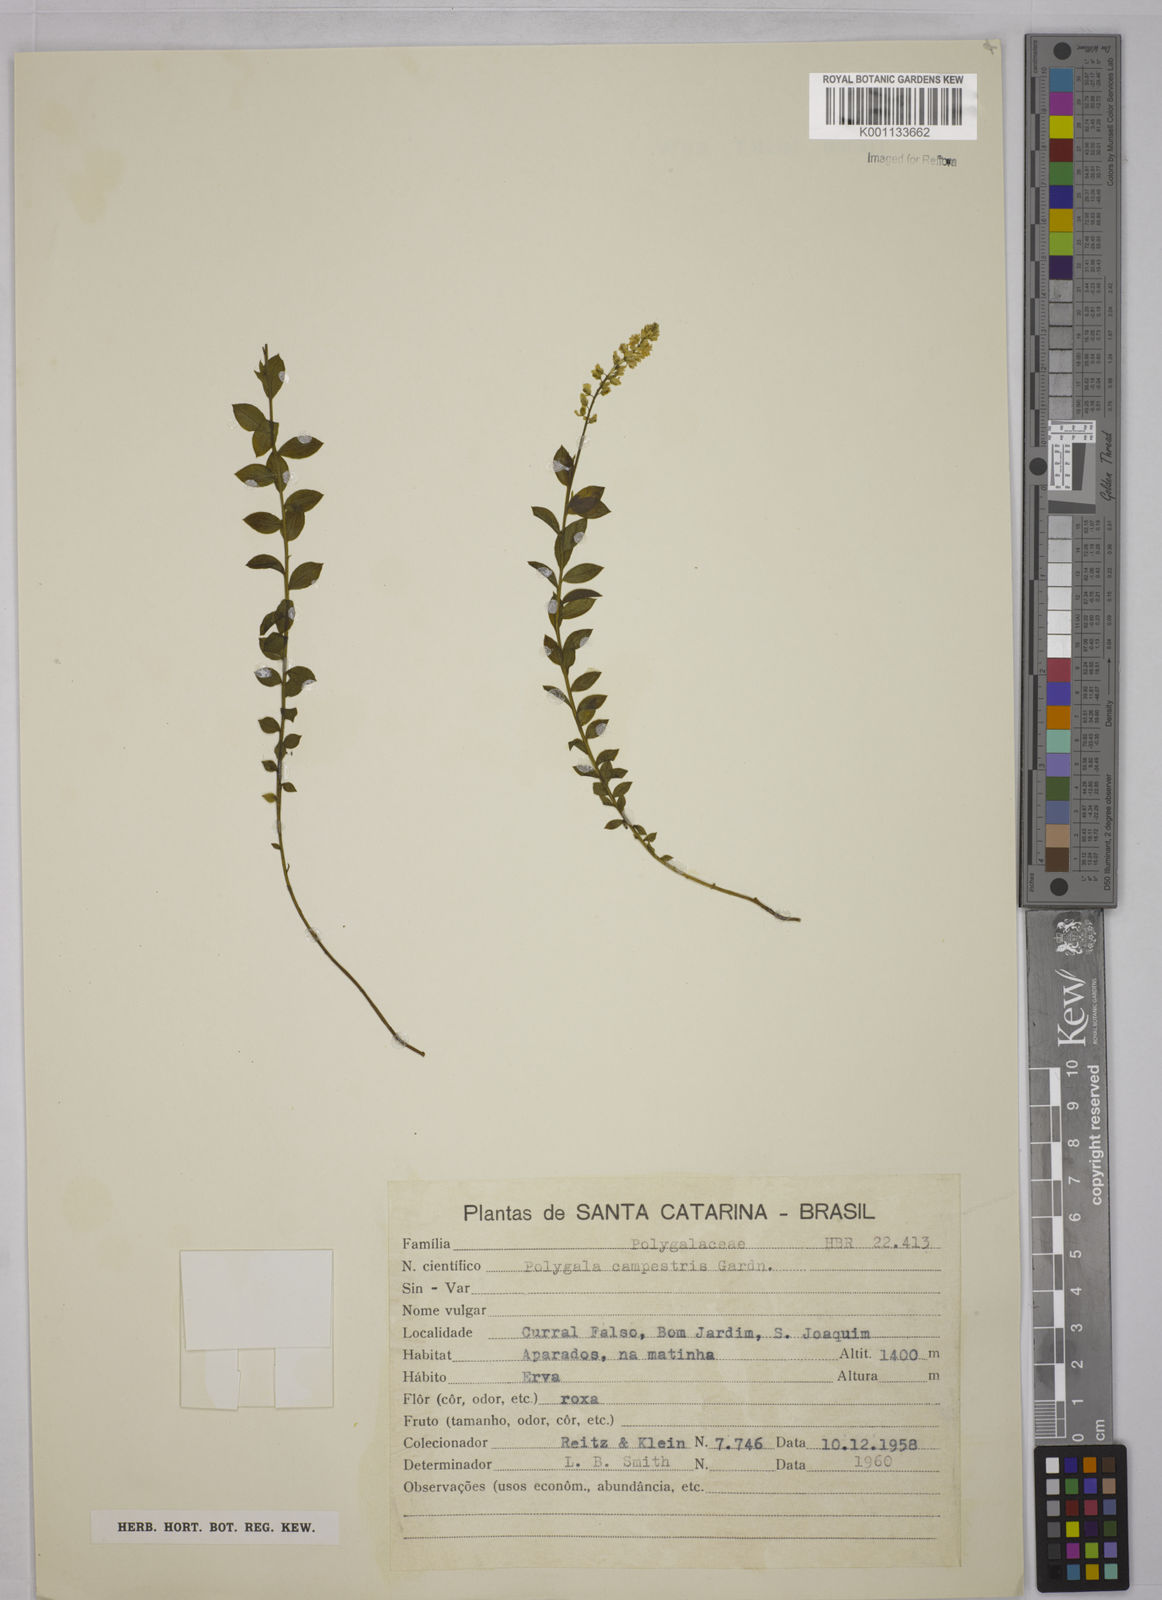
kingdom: Plantae
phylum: Tracheophyta
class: Magnoliopsida
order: Fabales
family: Polygalaceae
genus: Polygala
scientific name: Polygala campestris
